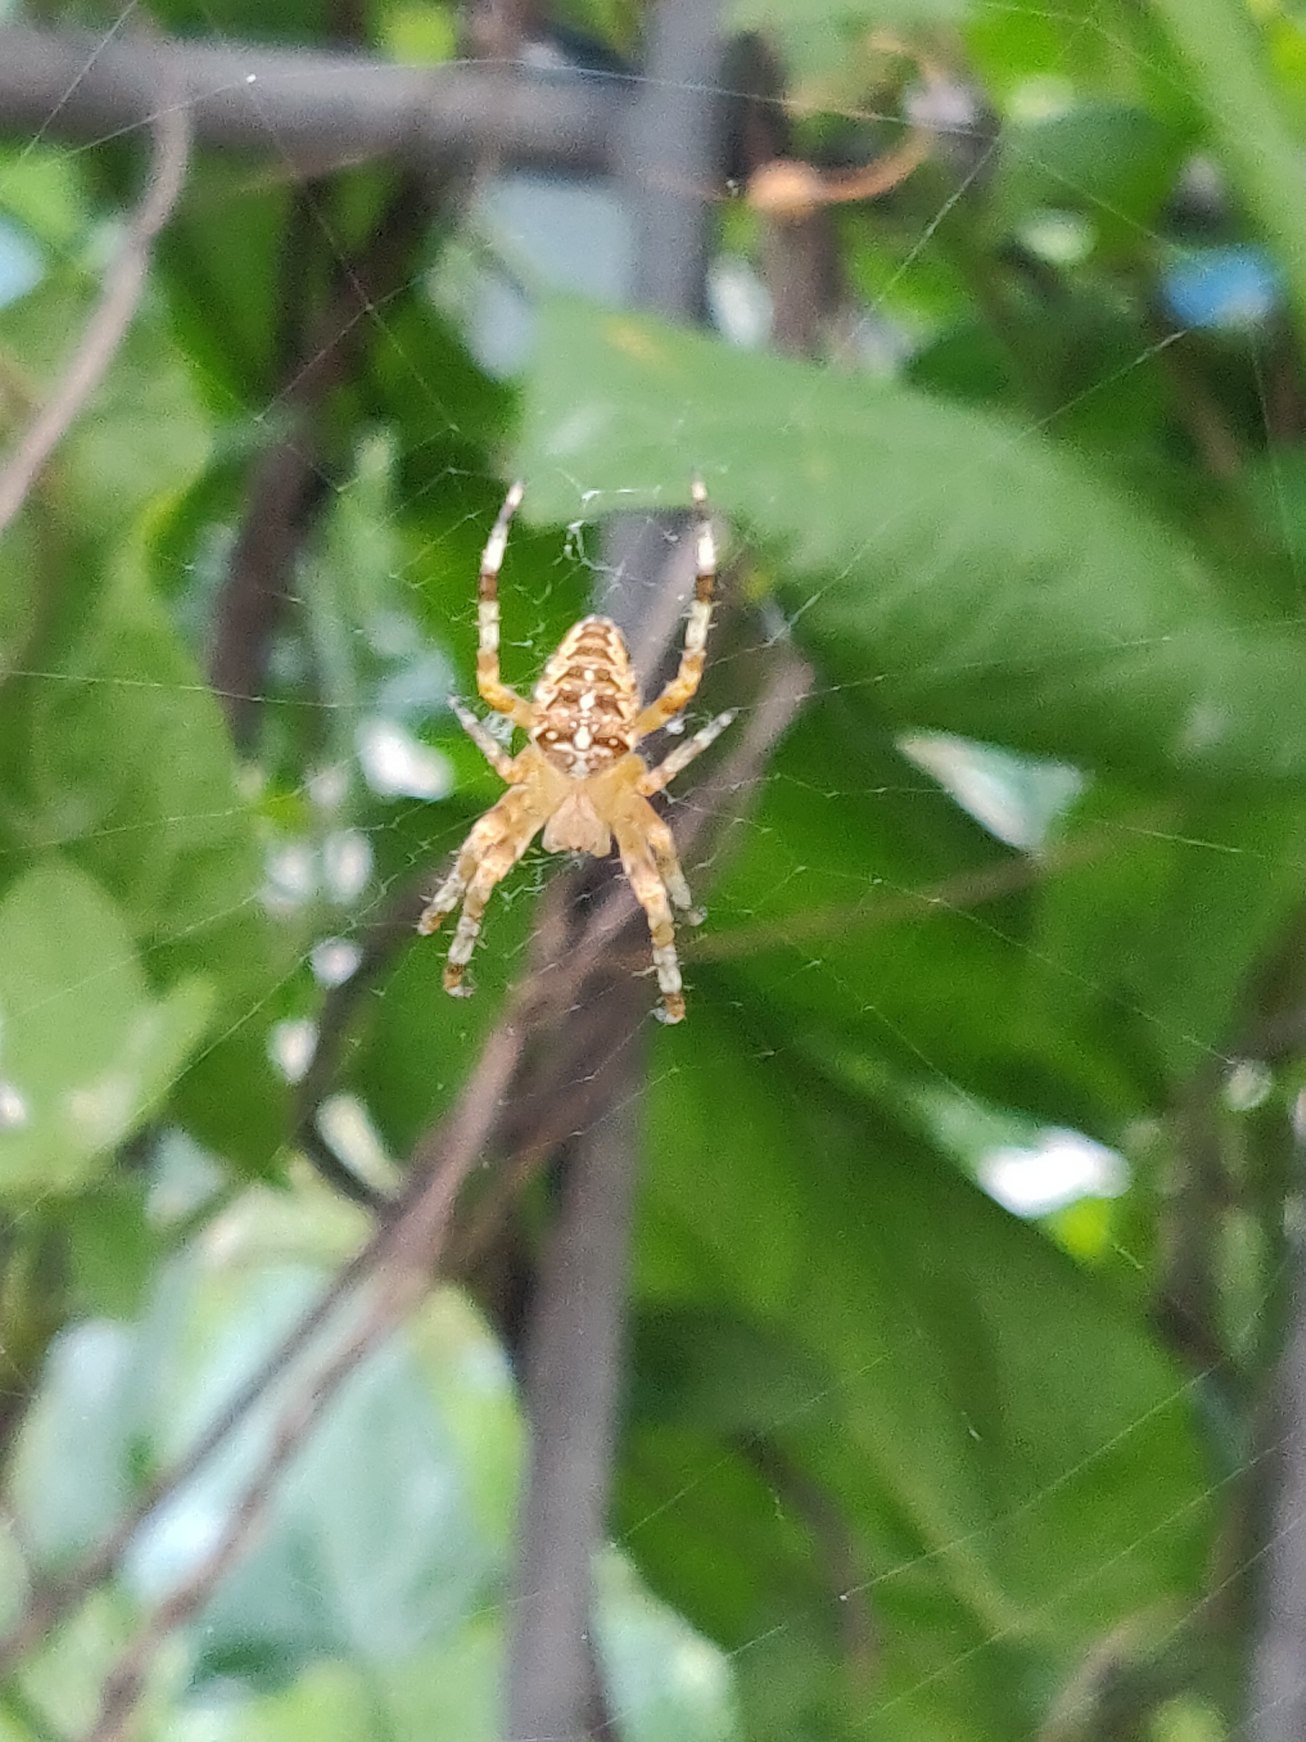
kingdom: Animalia
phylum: Arthropoda
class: Arachnida
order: Araneae
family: Araneidae
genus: Araneus
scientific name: Araneus diadematus
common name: Korsedderkop
